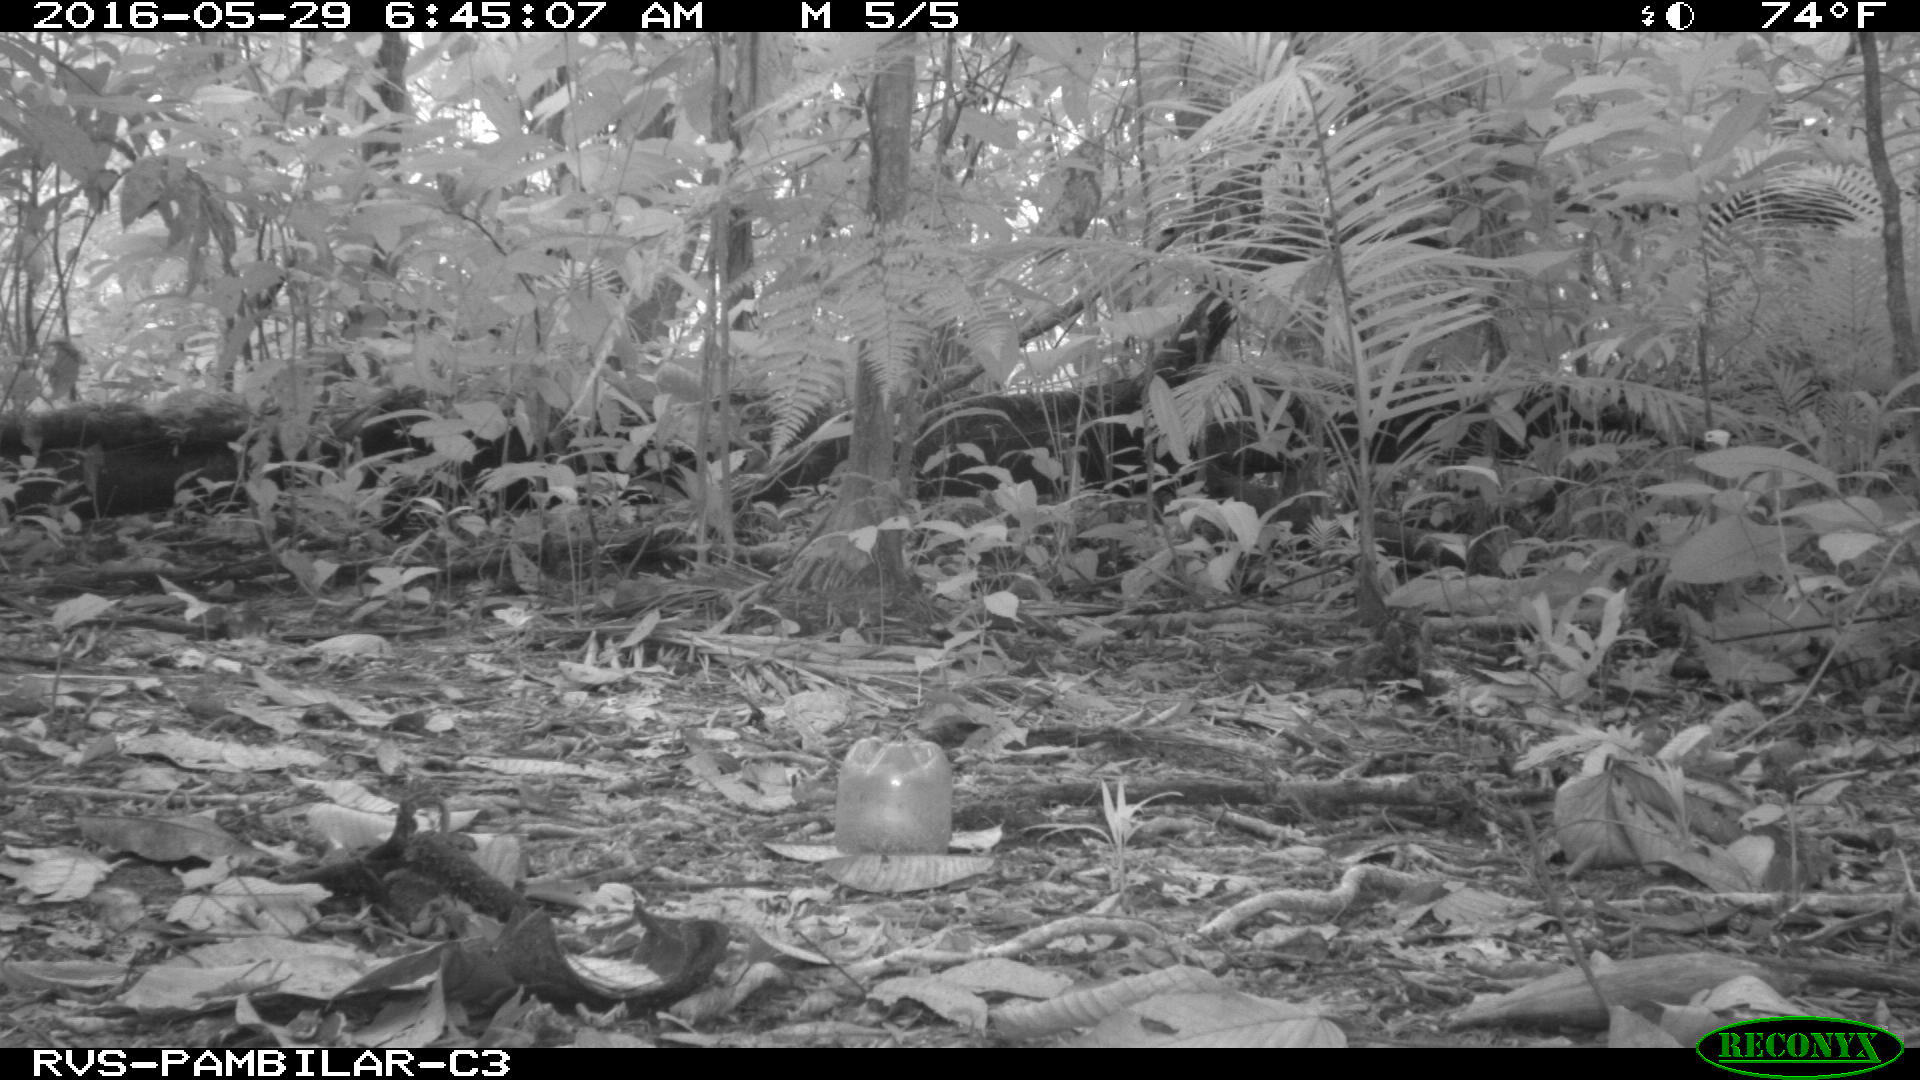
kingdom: Animalia
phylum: Chordata
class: Mammalia
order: Rodentia
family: Dasyproctidae
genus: Dasyprocta
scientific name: Dasyprocta punctata
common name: Central american agouti
